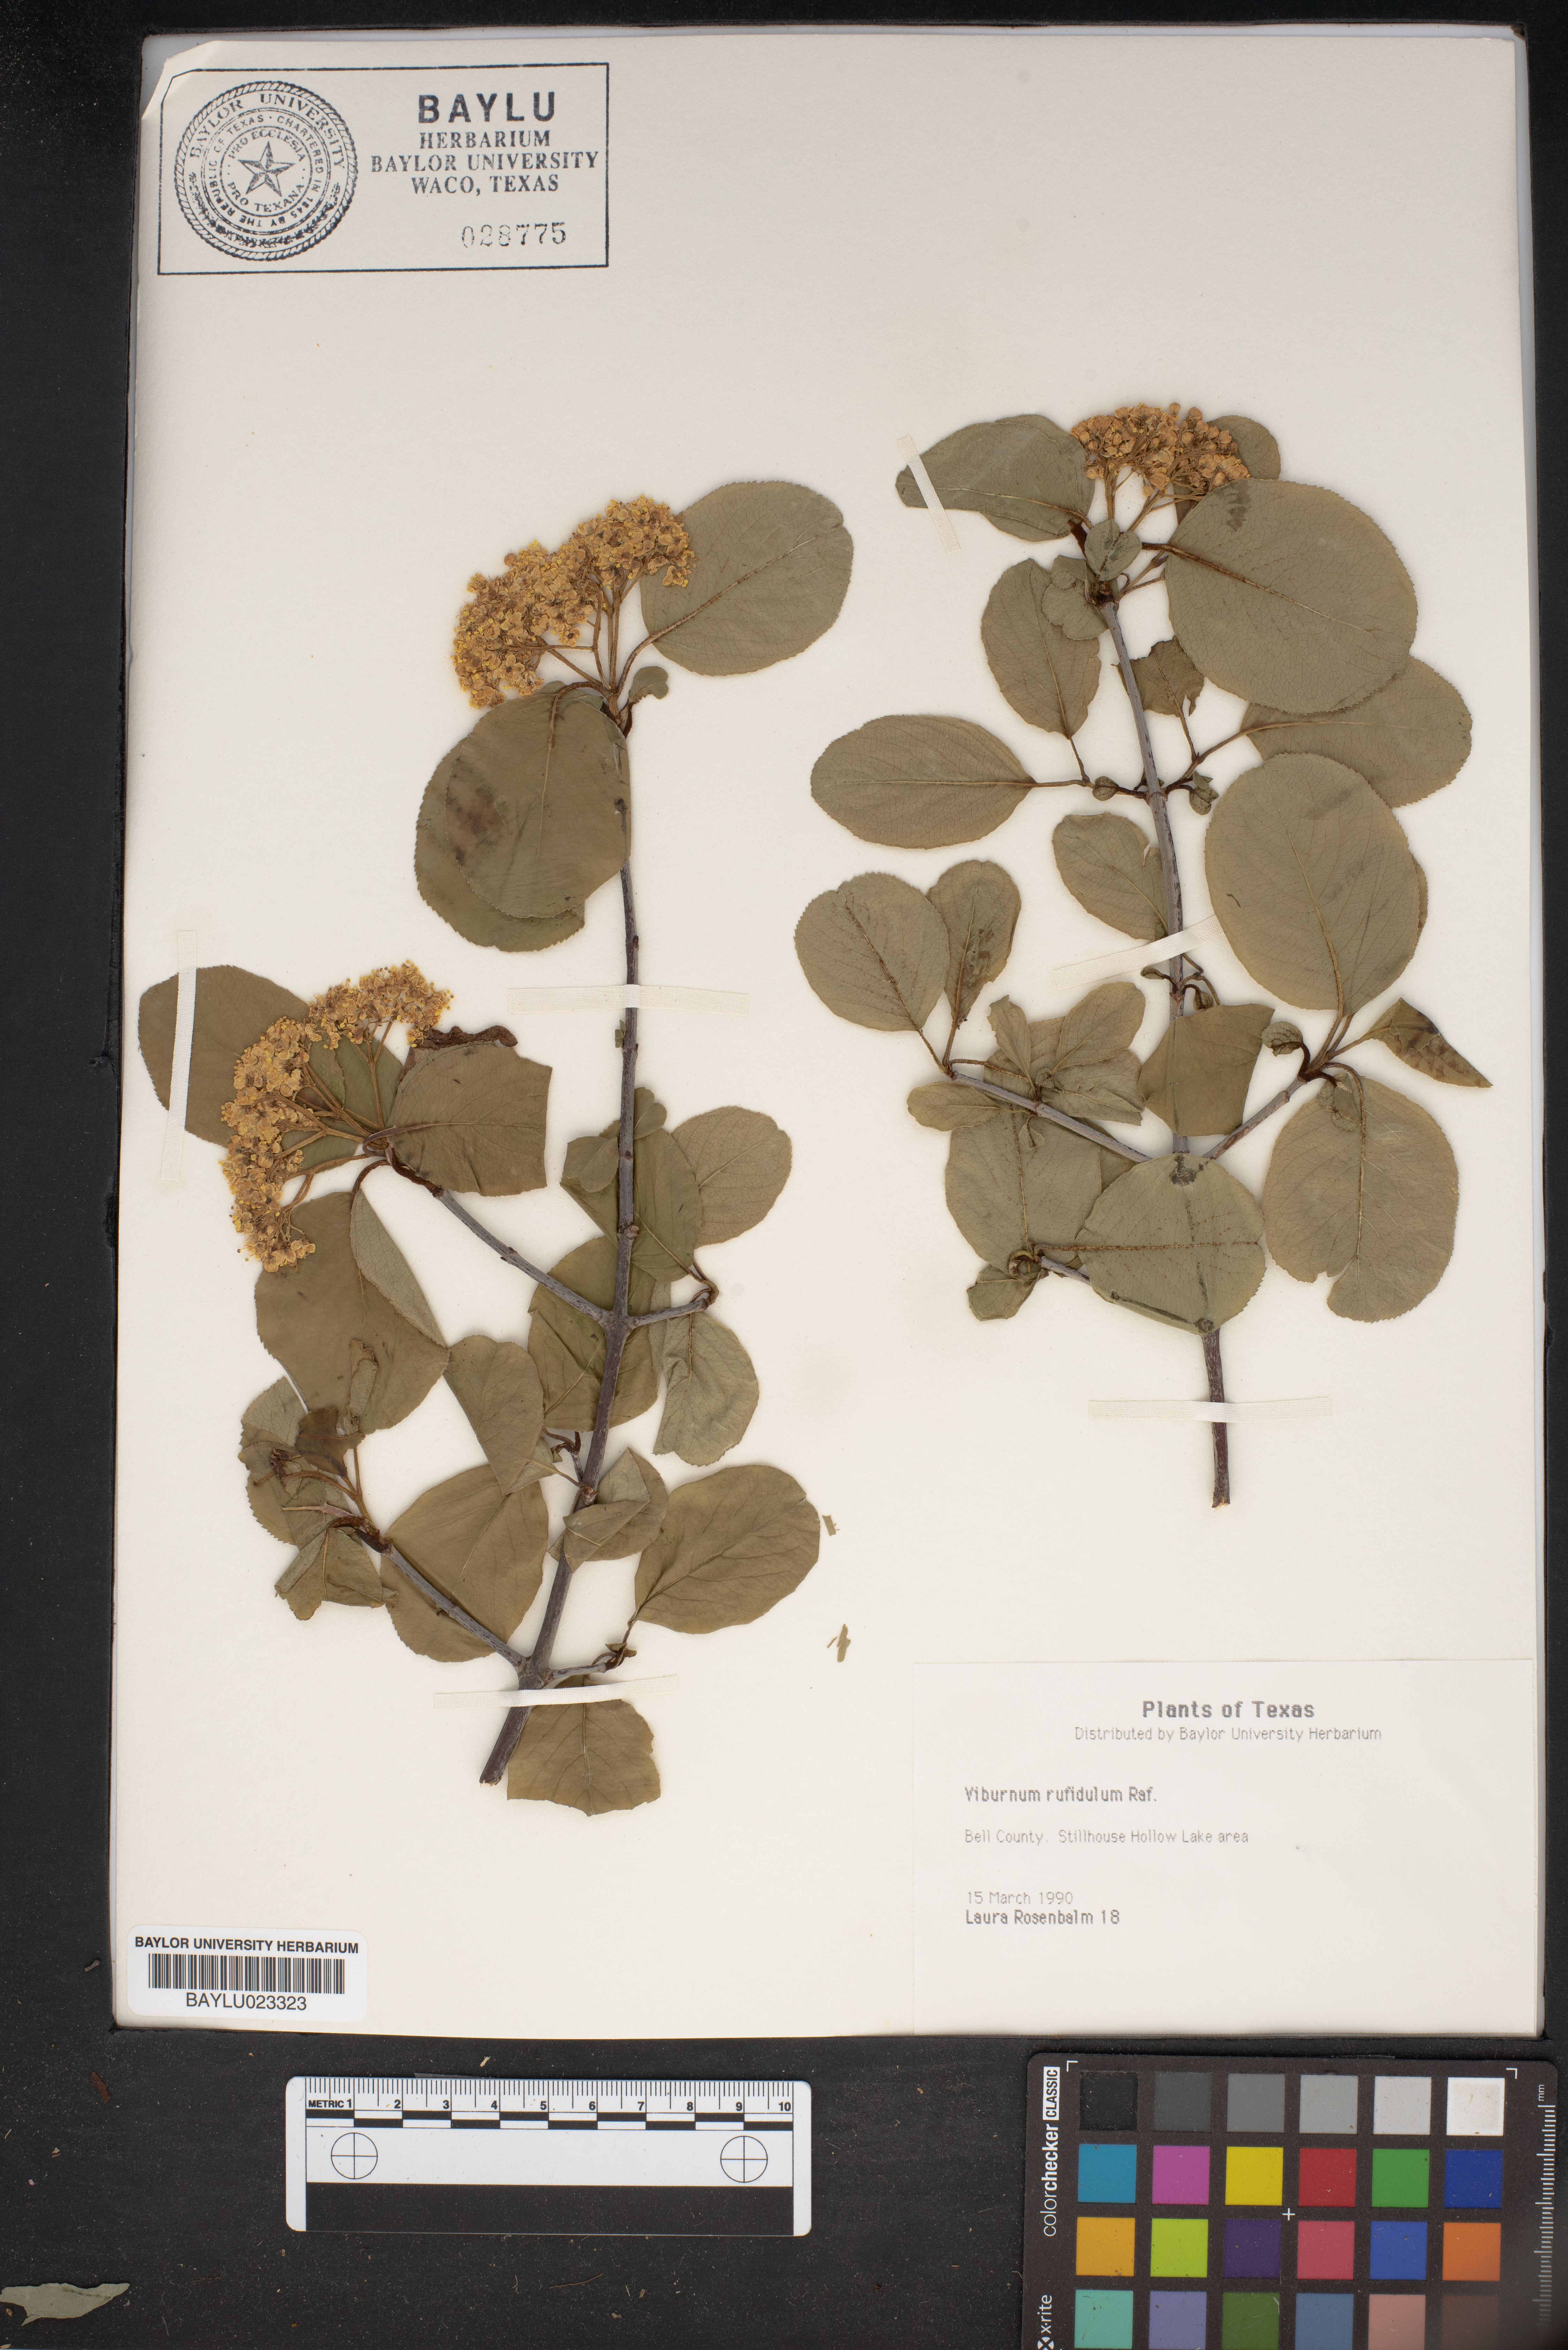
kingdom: Plantae
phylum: Tracheophyta
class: Magnoliopsida
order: Dipsacales
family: Viburnaceae
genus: Viburnum
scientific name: Viburnum rufidulum
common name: Blue haw
